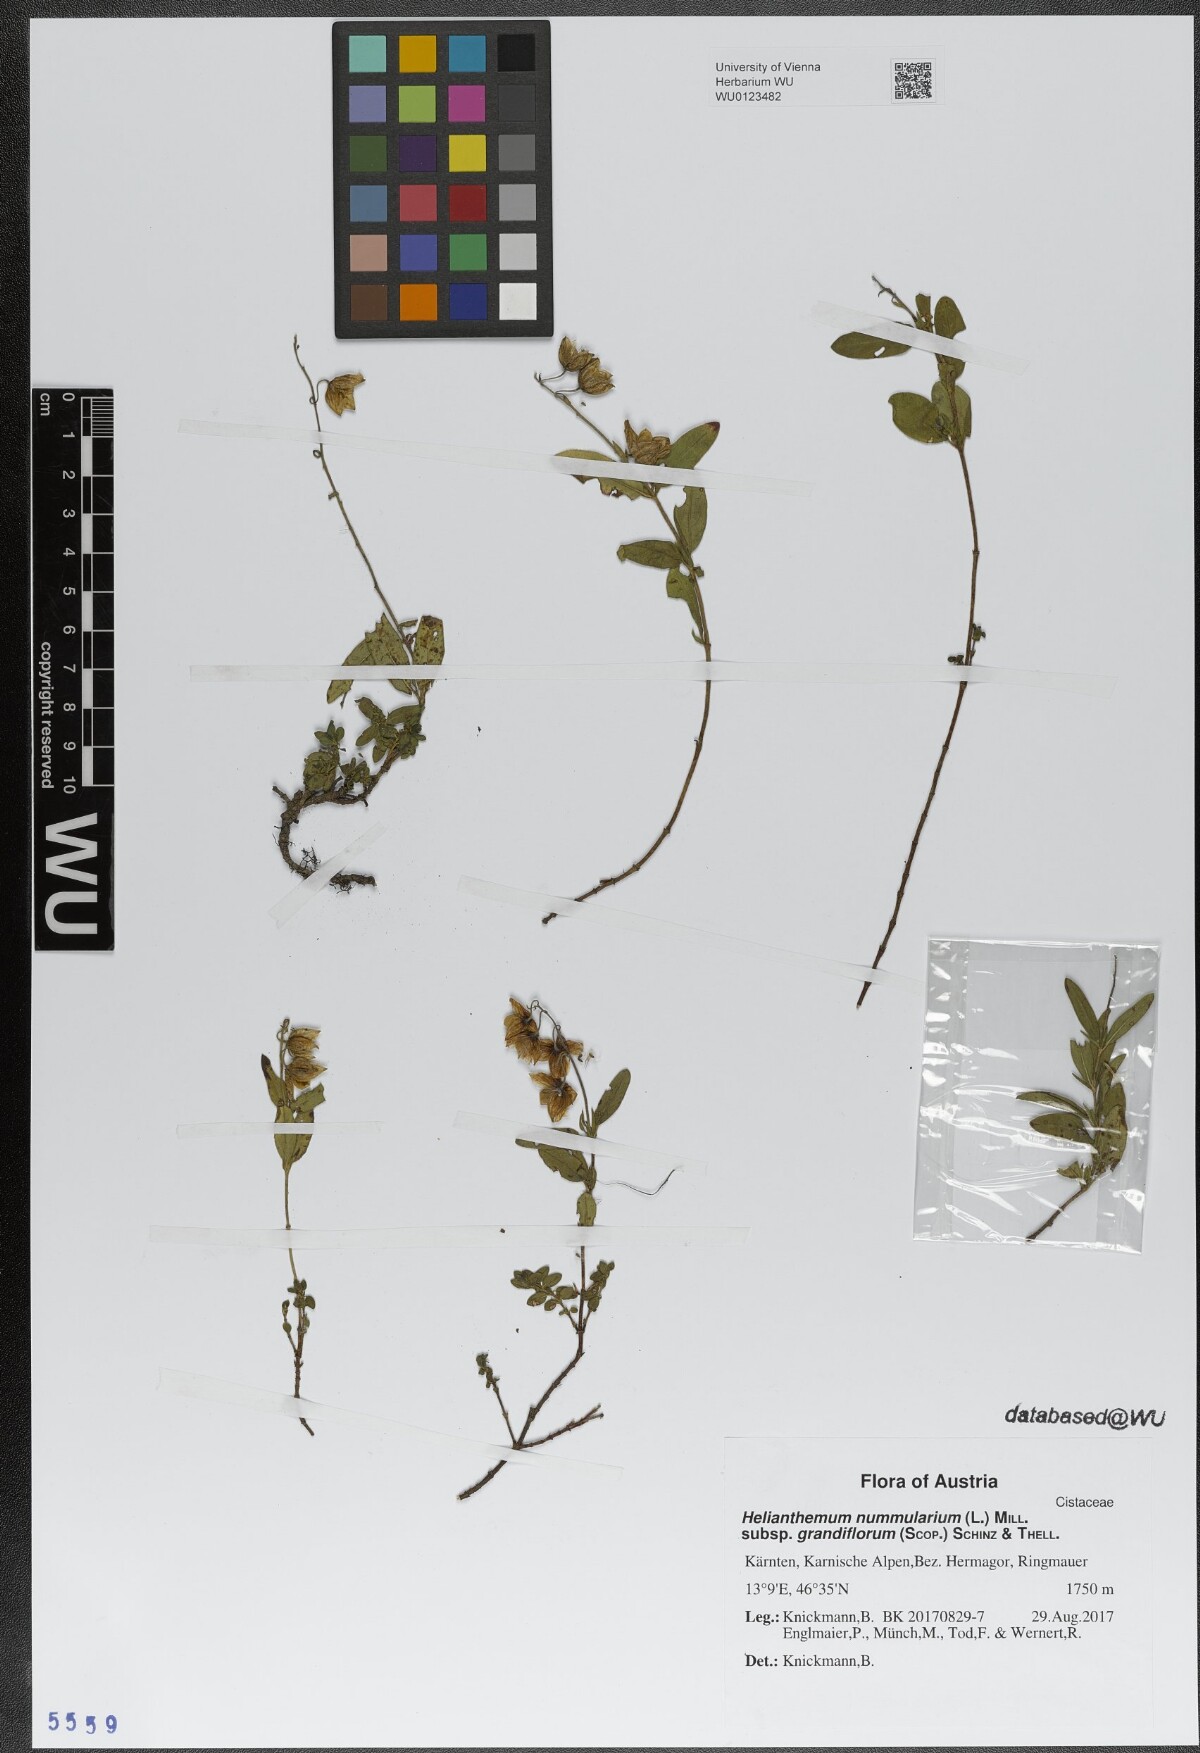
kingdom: Plantae
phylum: Tracheophyta
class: Magnoliopsida
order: Malvales
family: Cistaceae
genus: Helianthemum
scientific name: Helianthemum nummularium
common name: Common rock-rose
